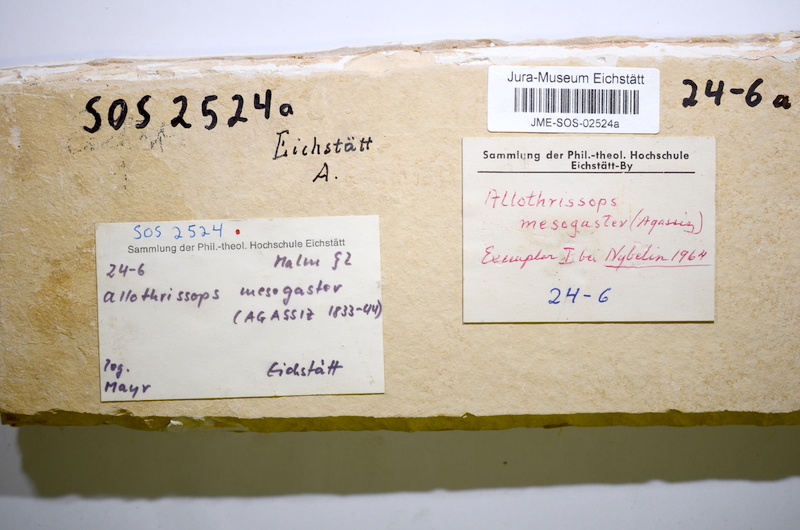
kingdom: Animalia
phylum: Chordata
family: Allothrissopidae
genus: Allothrissops
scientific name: Allothrissops mesogaster
